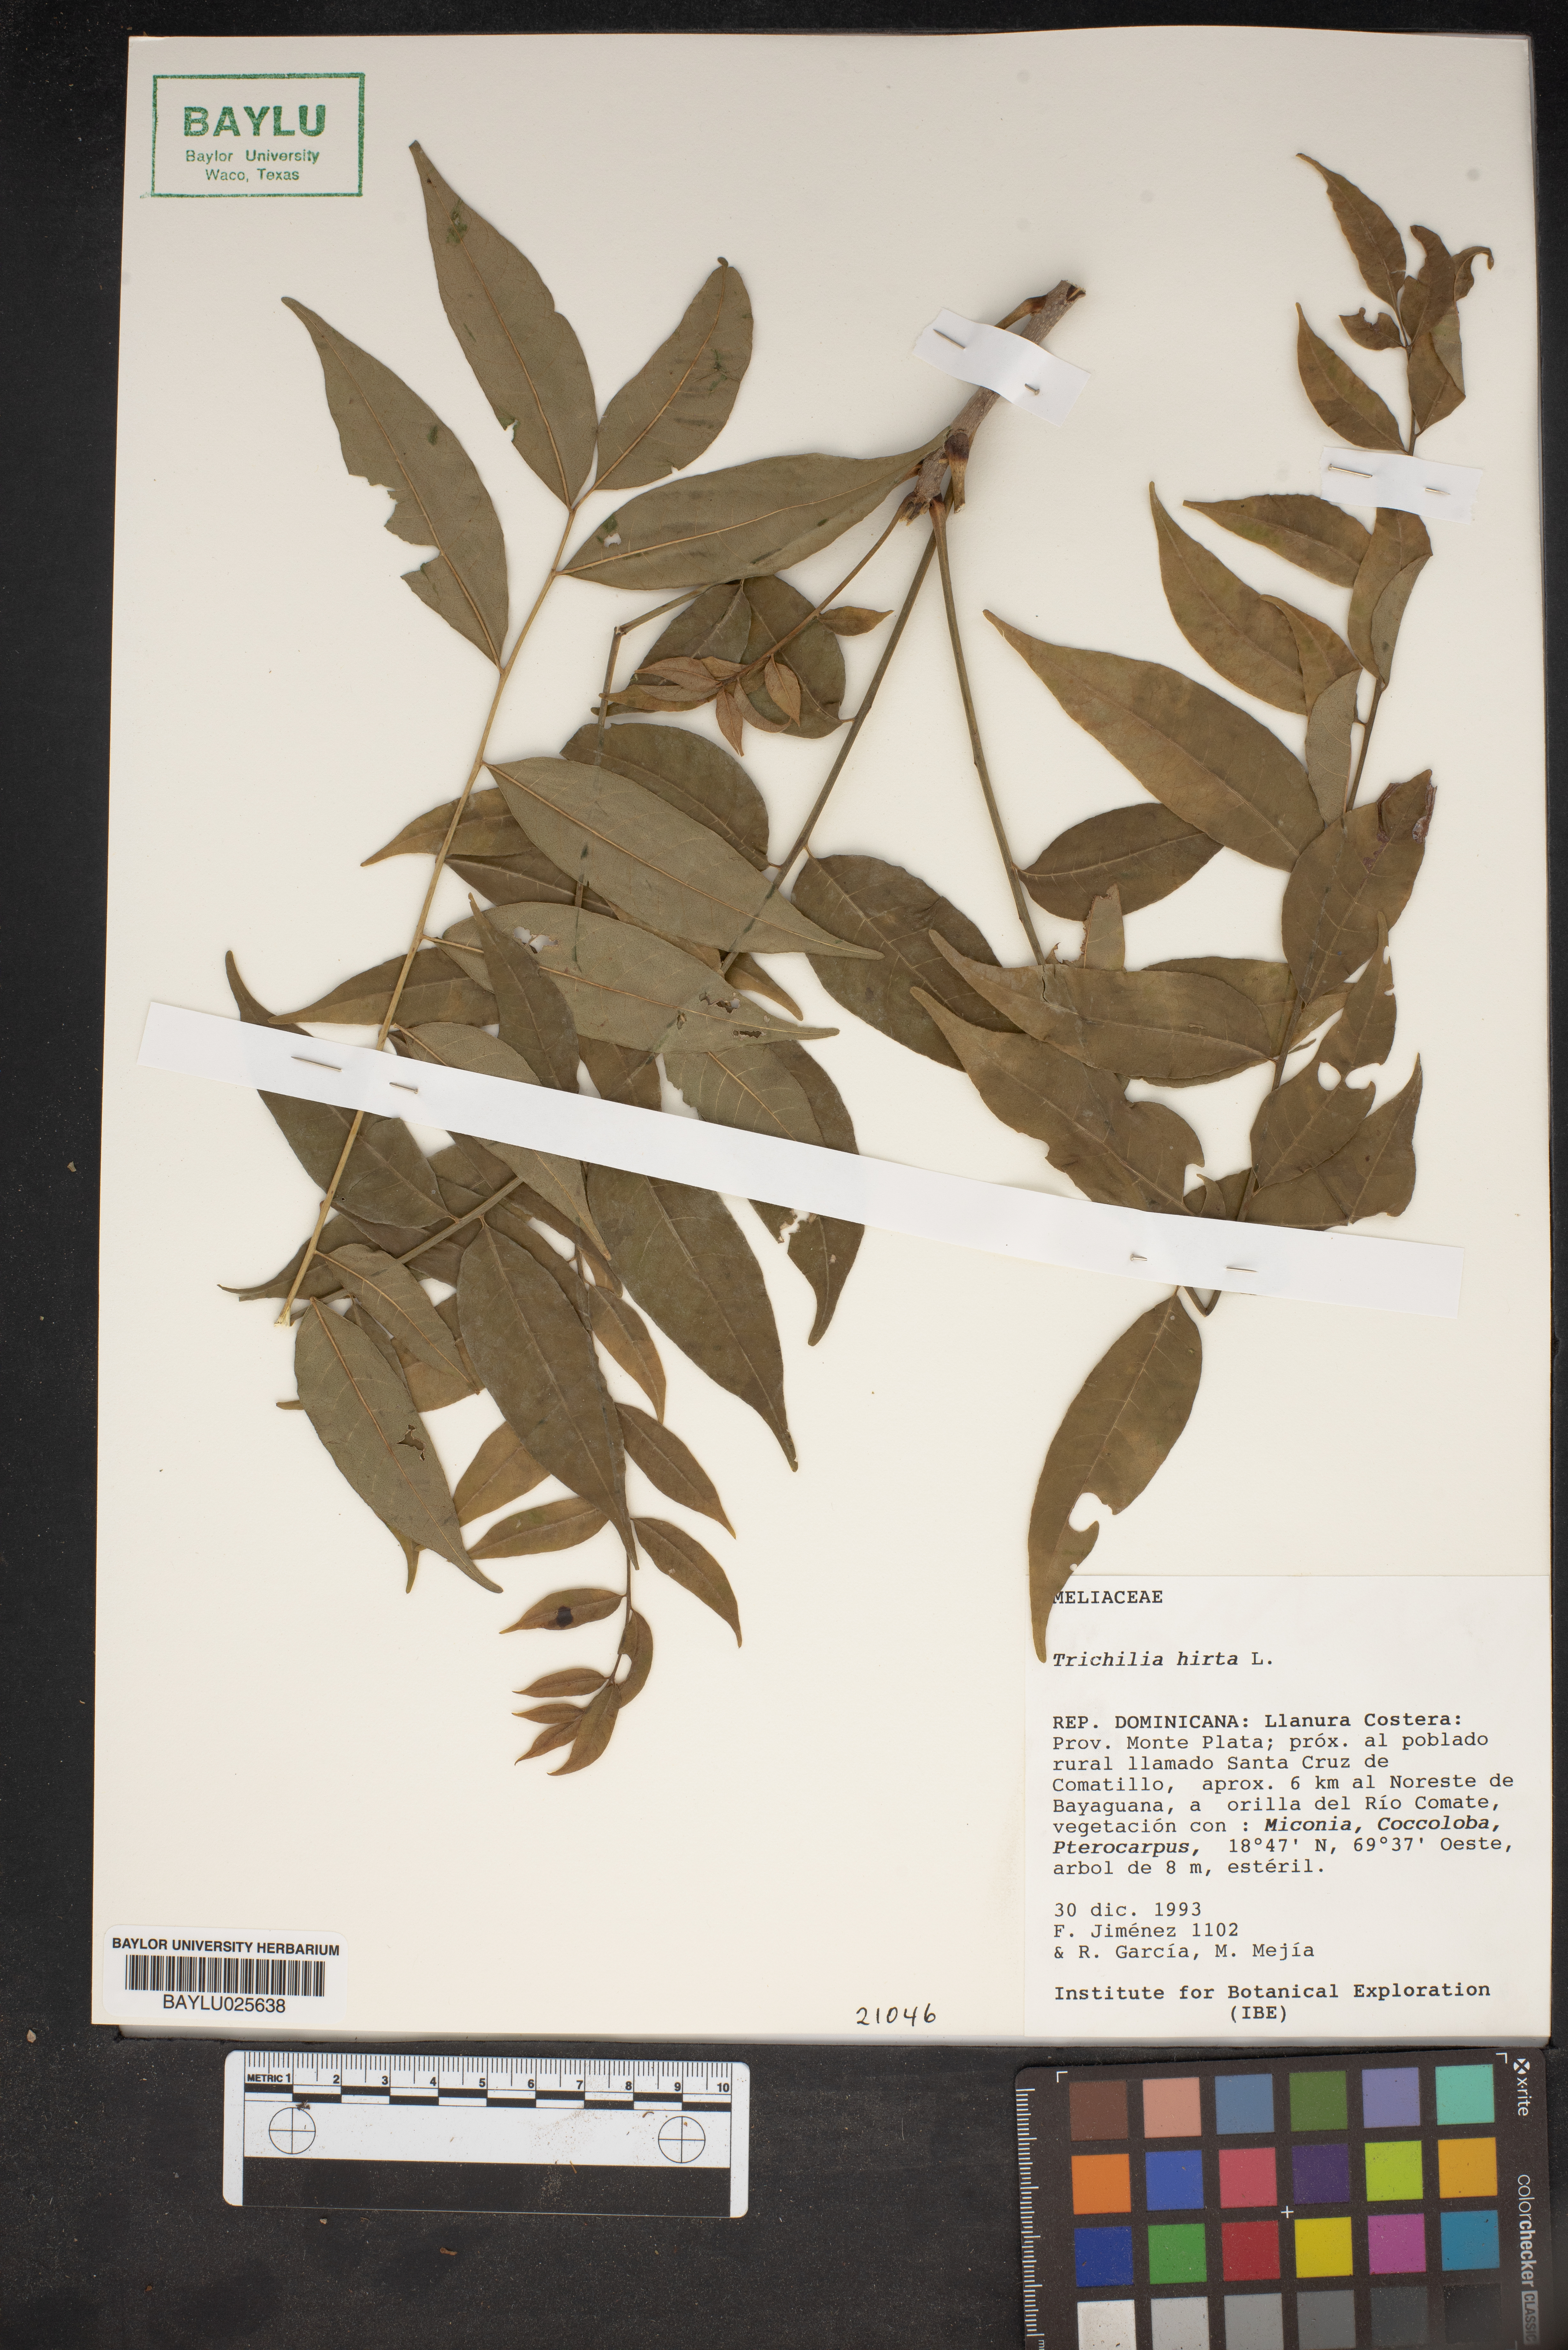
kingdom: Plantae
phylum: Tracheophyta
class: Magnoliopsida
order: Sapindales
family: Meliaceae
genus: Trichilia
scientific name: Trichilia hirta
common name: Red-cedar
